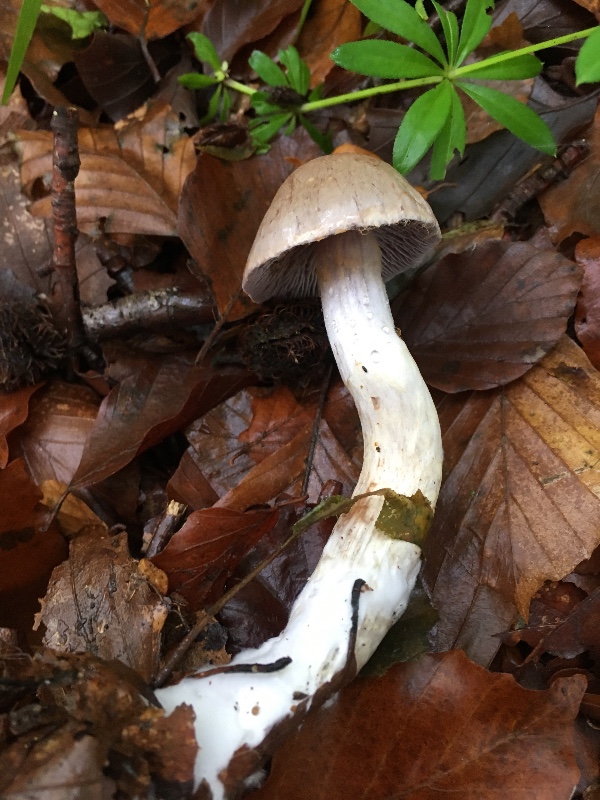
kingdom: Fungi
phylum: Basidiomycota
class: Agaricomycetes
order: Agaricales
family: Cortinariaceae
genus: Cortinarius
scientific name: Cortinarius
